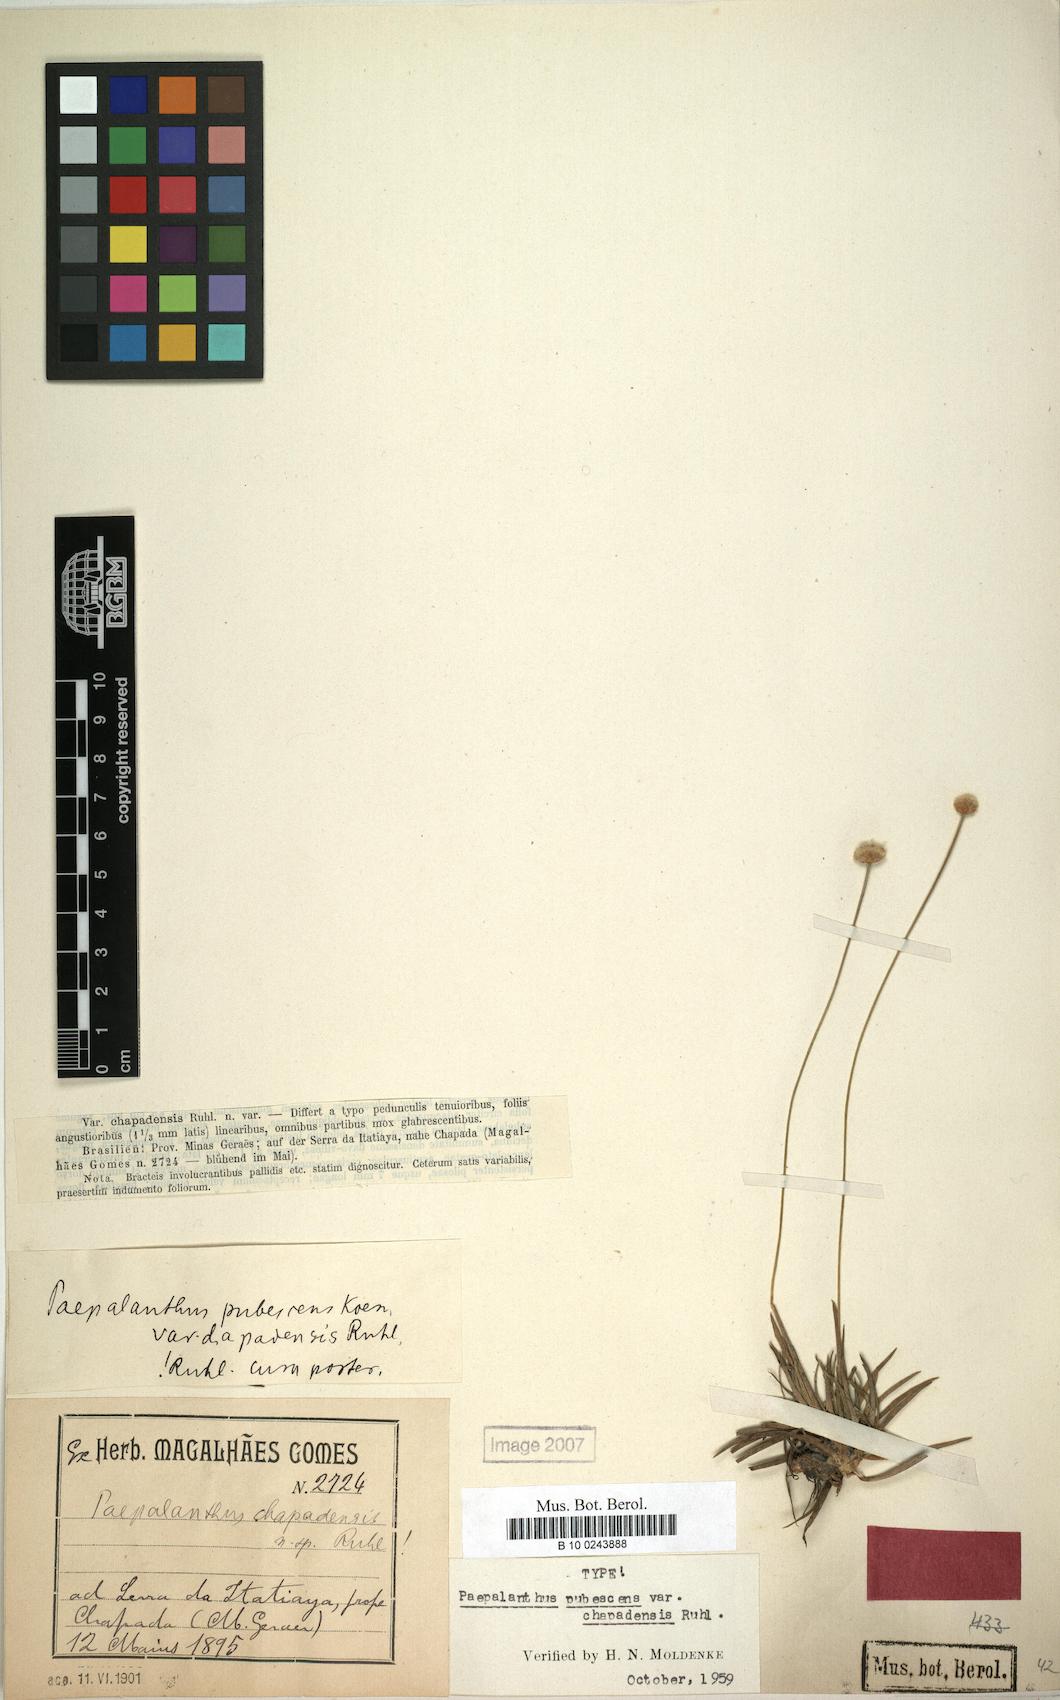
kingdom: Plantae
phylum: Tracheophyta
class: Liliopsida
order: Poales
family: Eriocaulaceae
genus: Paepalanthus
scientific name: Paepalanthus trichopetalus
